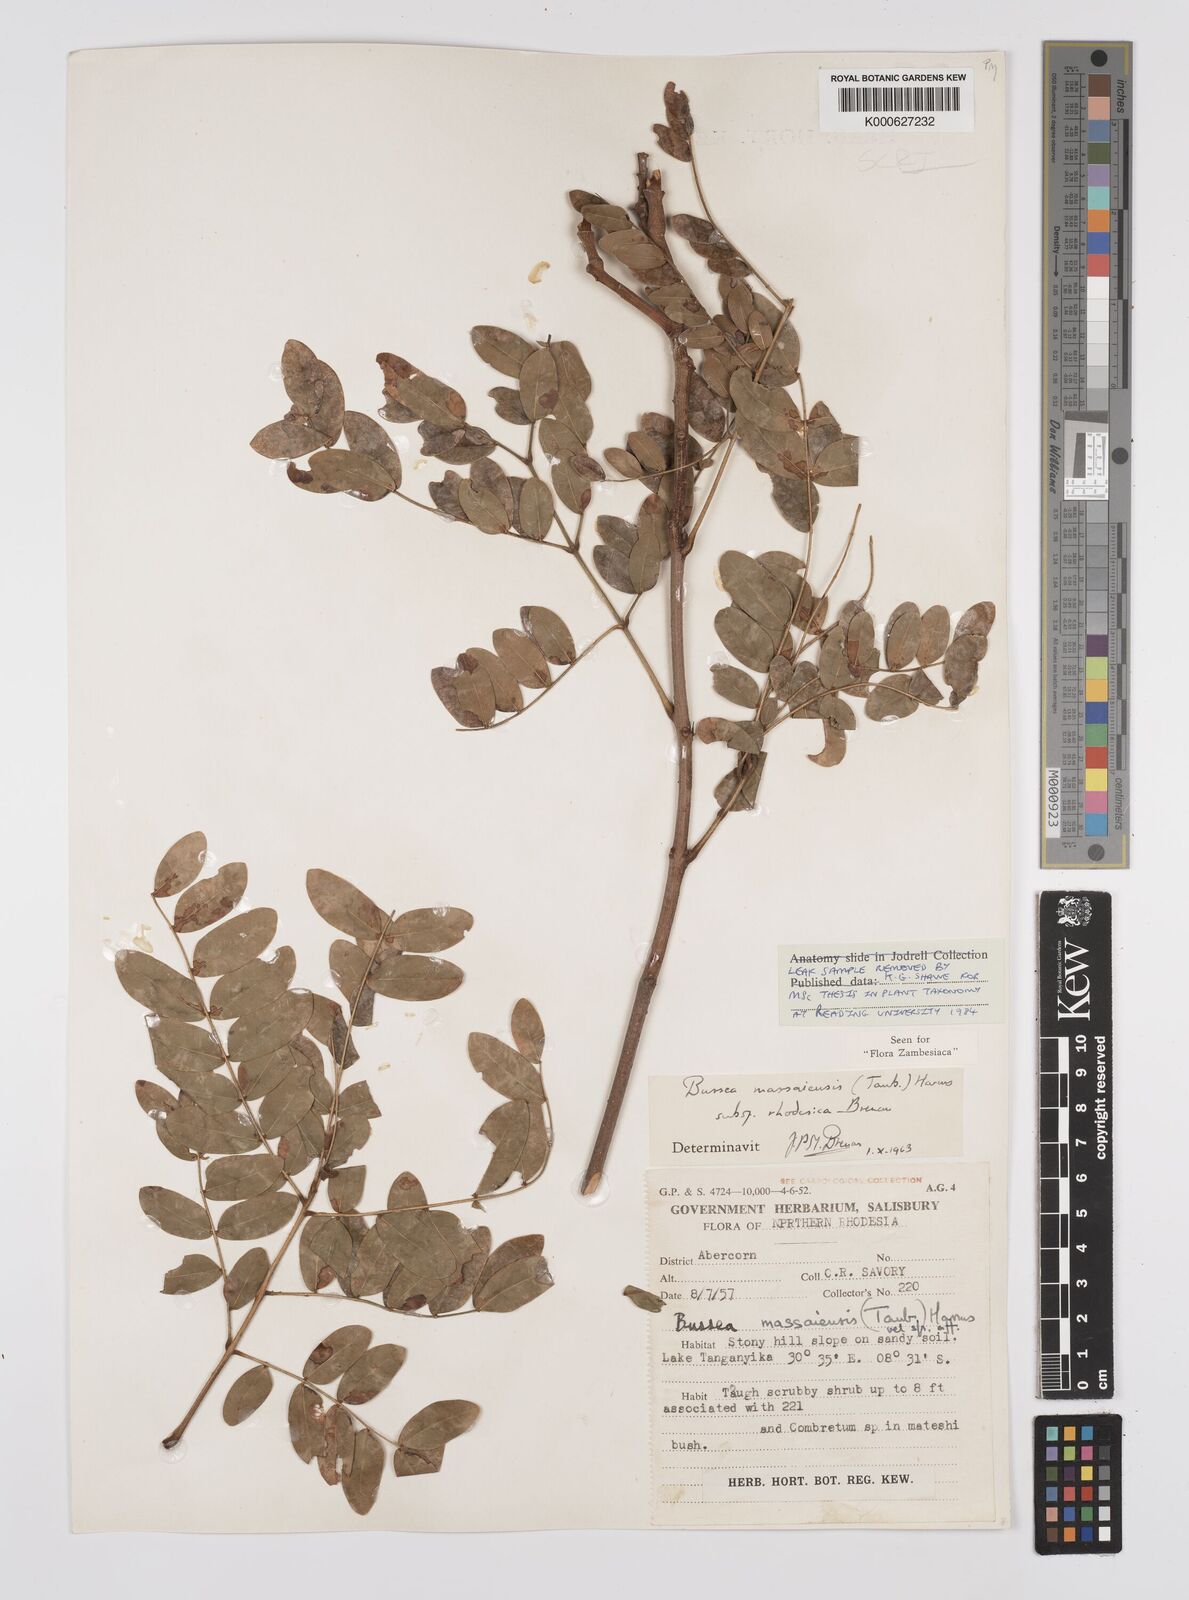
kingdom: Plantae
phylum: Tracheophyta
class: Magnoliopsida
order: Fabales
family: Fabaceae
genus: Bussea
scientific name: Bussea
